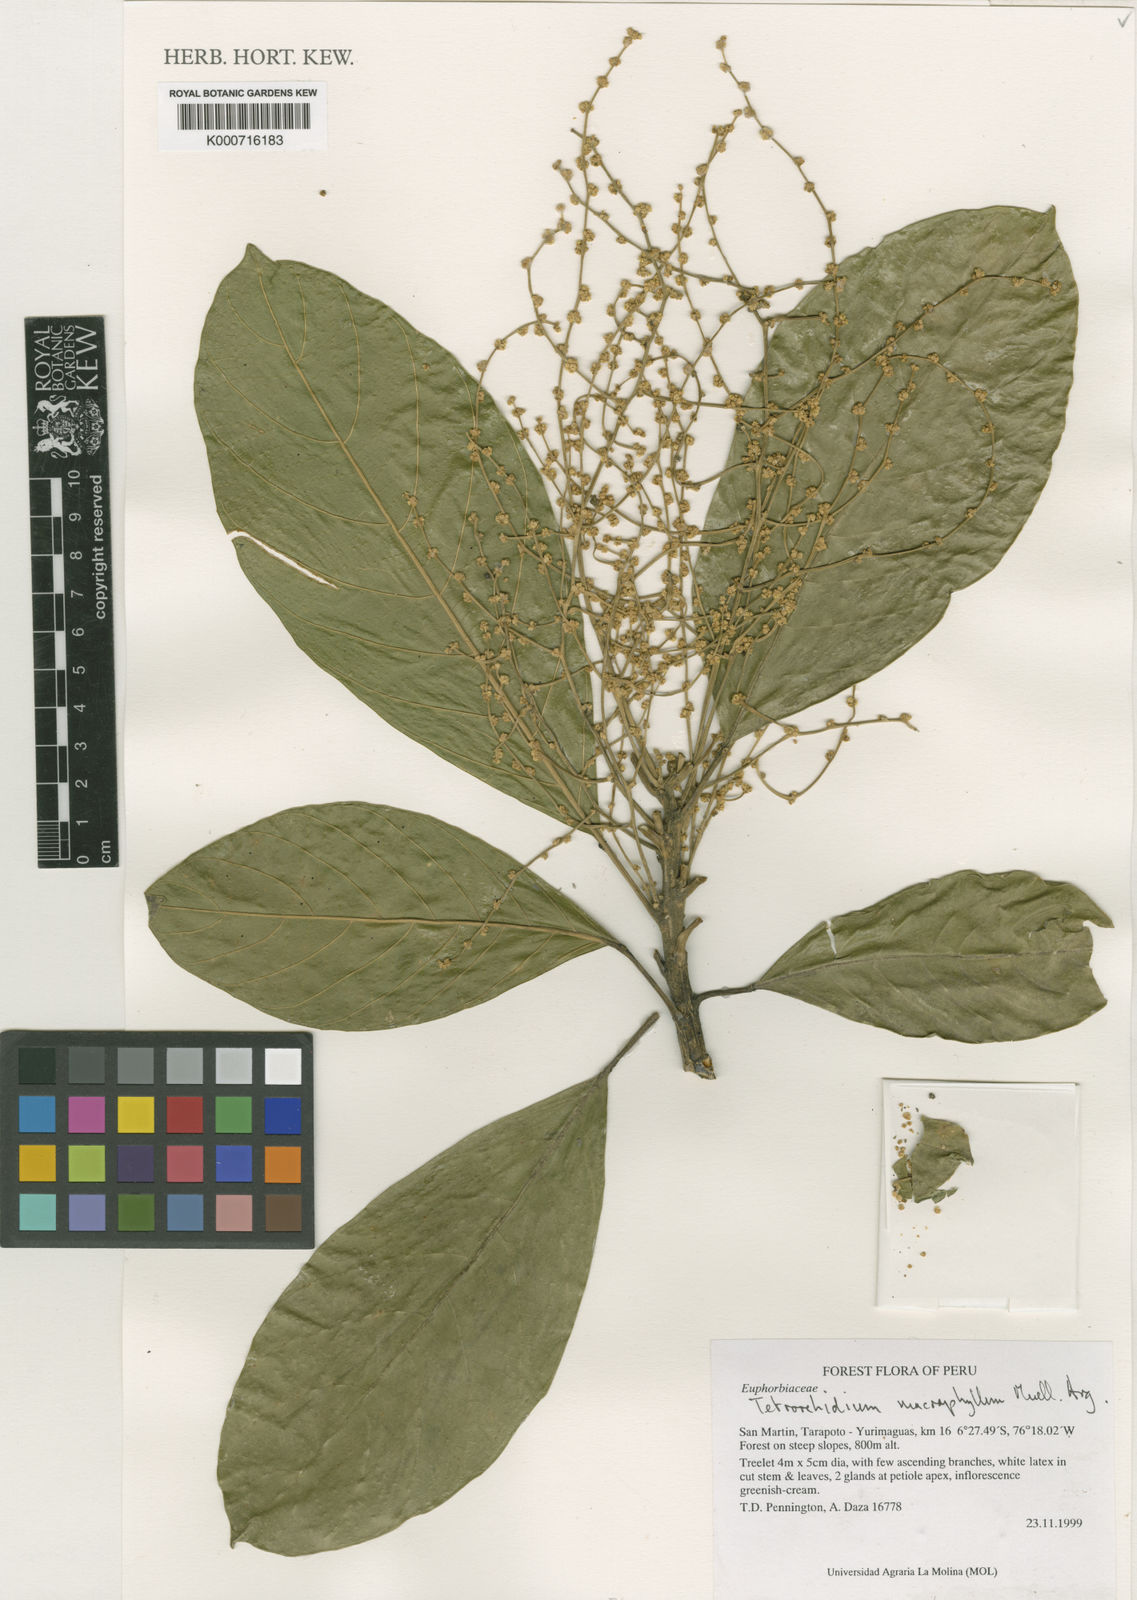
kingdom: Plantae
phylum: Tracheophyta
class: Magnoliopsida
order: Malpighiales
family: Euphorbiaceae
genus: Tetrorchidium
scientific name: Tetrorchidium
